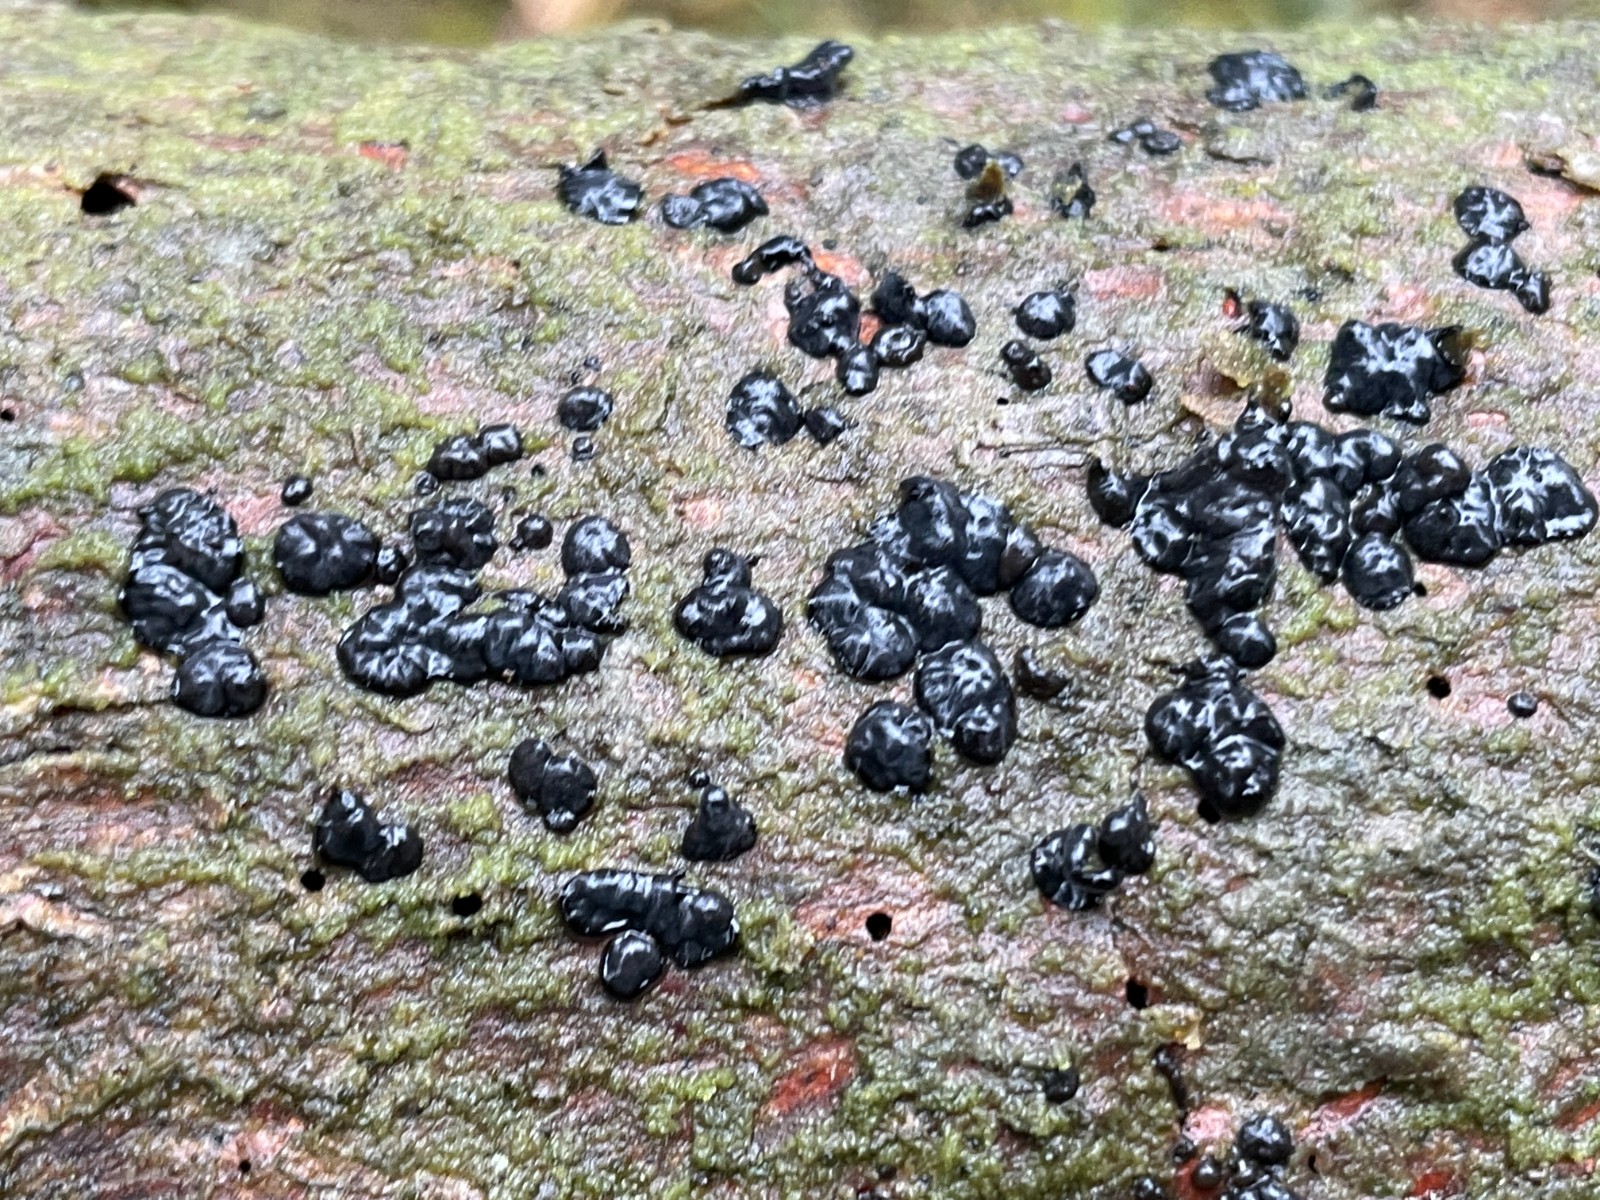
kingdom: Fungi
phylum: Basidiomycota
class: Agaricomycetes
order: Auriculariales
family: Auriculariaceae
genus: Exidia
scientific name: Exidia pithya
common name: gran-bævretop
